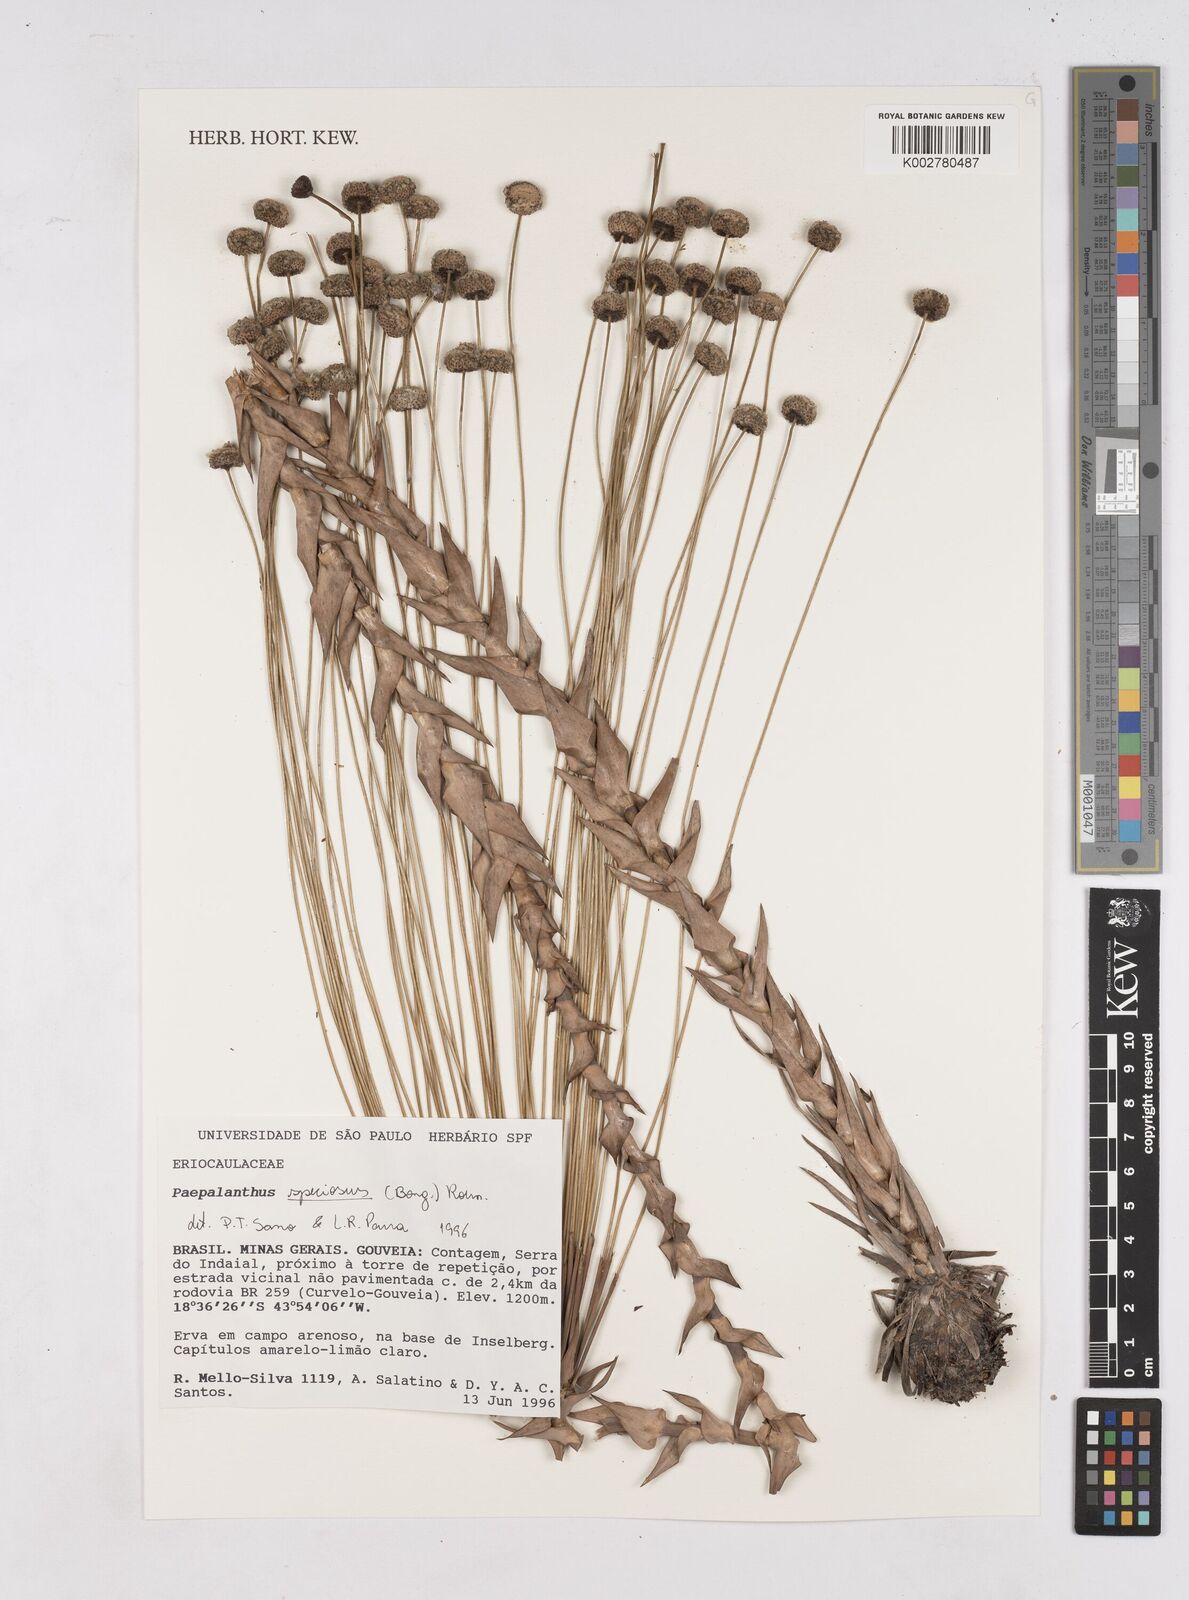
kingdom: Plantae
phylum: Tracheophyta
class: Liliopsida
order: Poales
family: Eriocaulaceae
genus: Paepalanthus
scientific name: Paepalanthus chiquitensis
